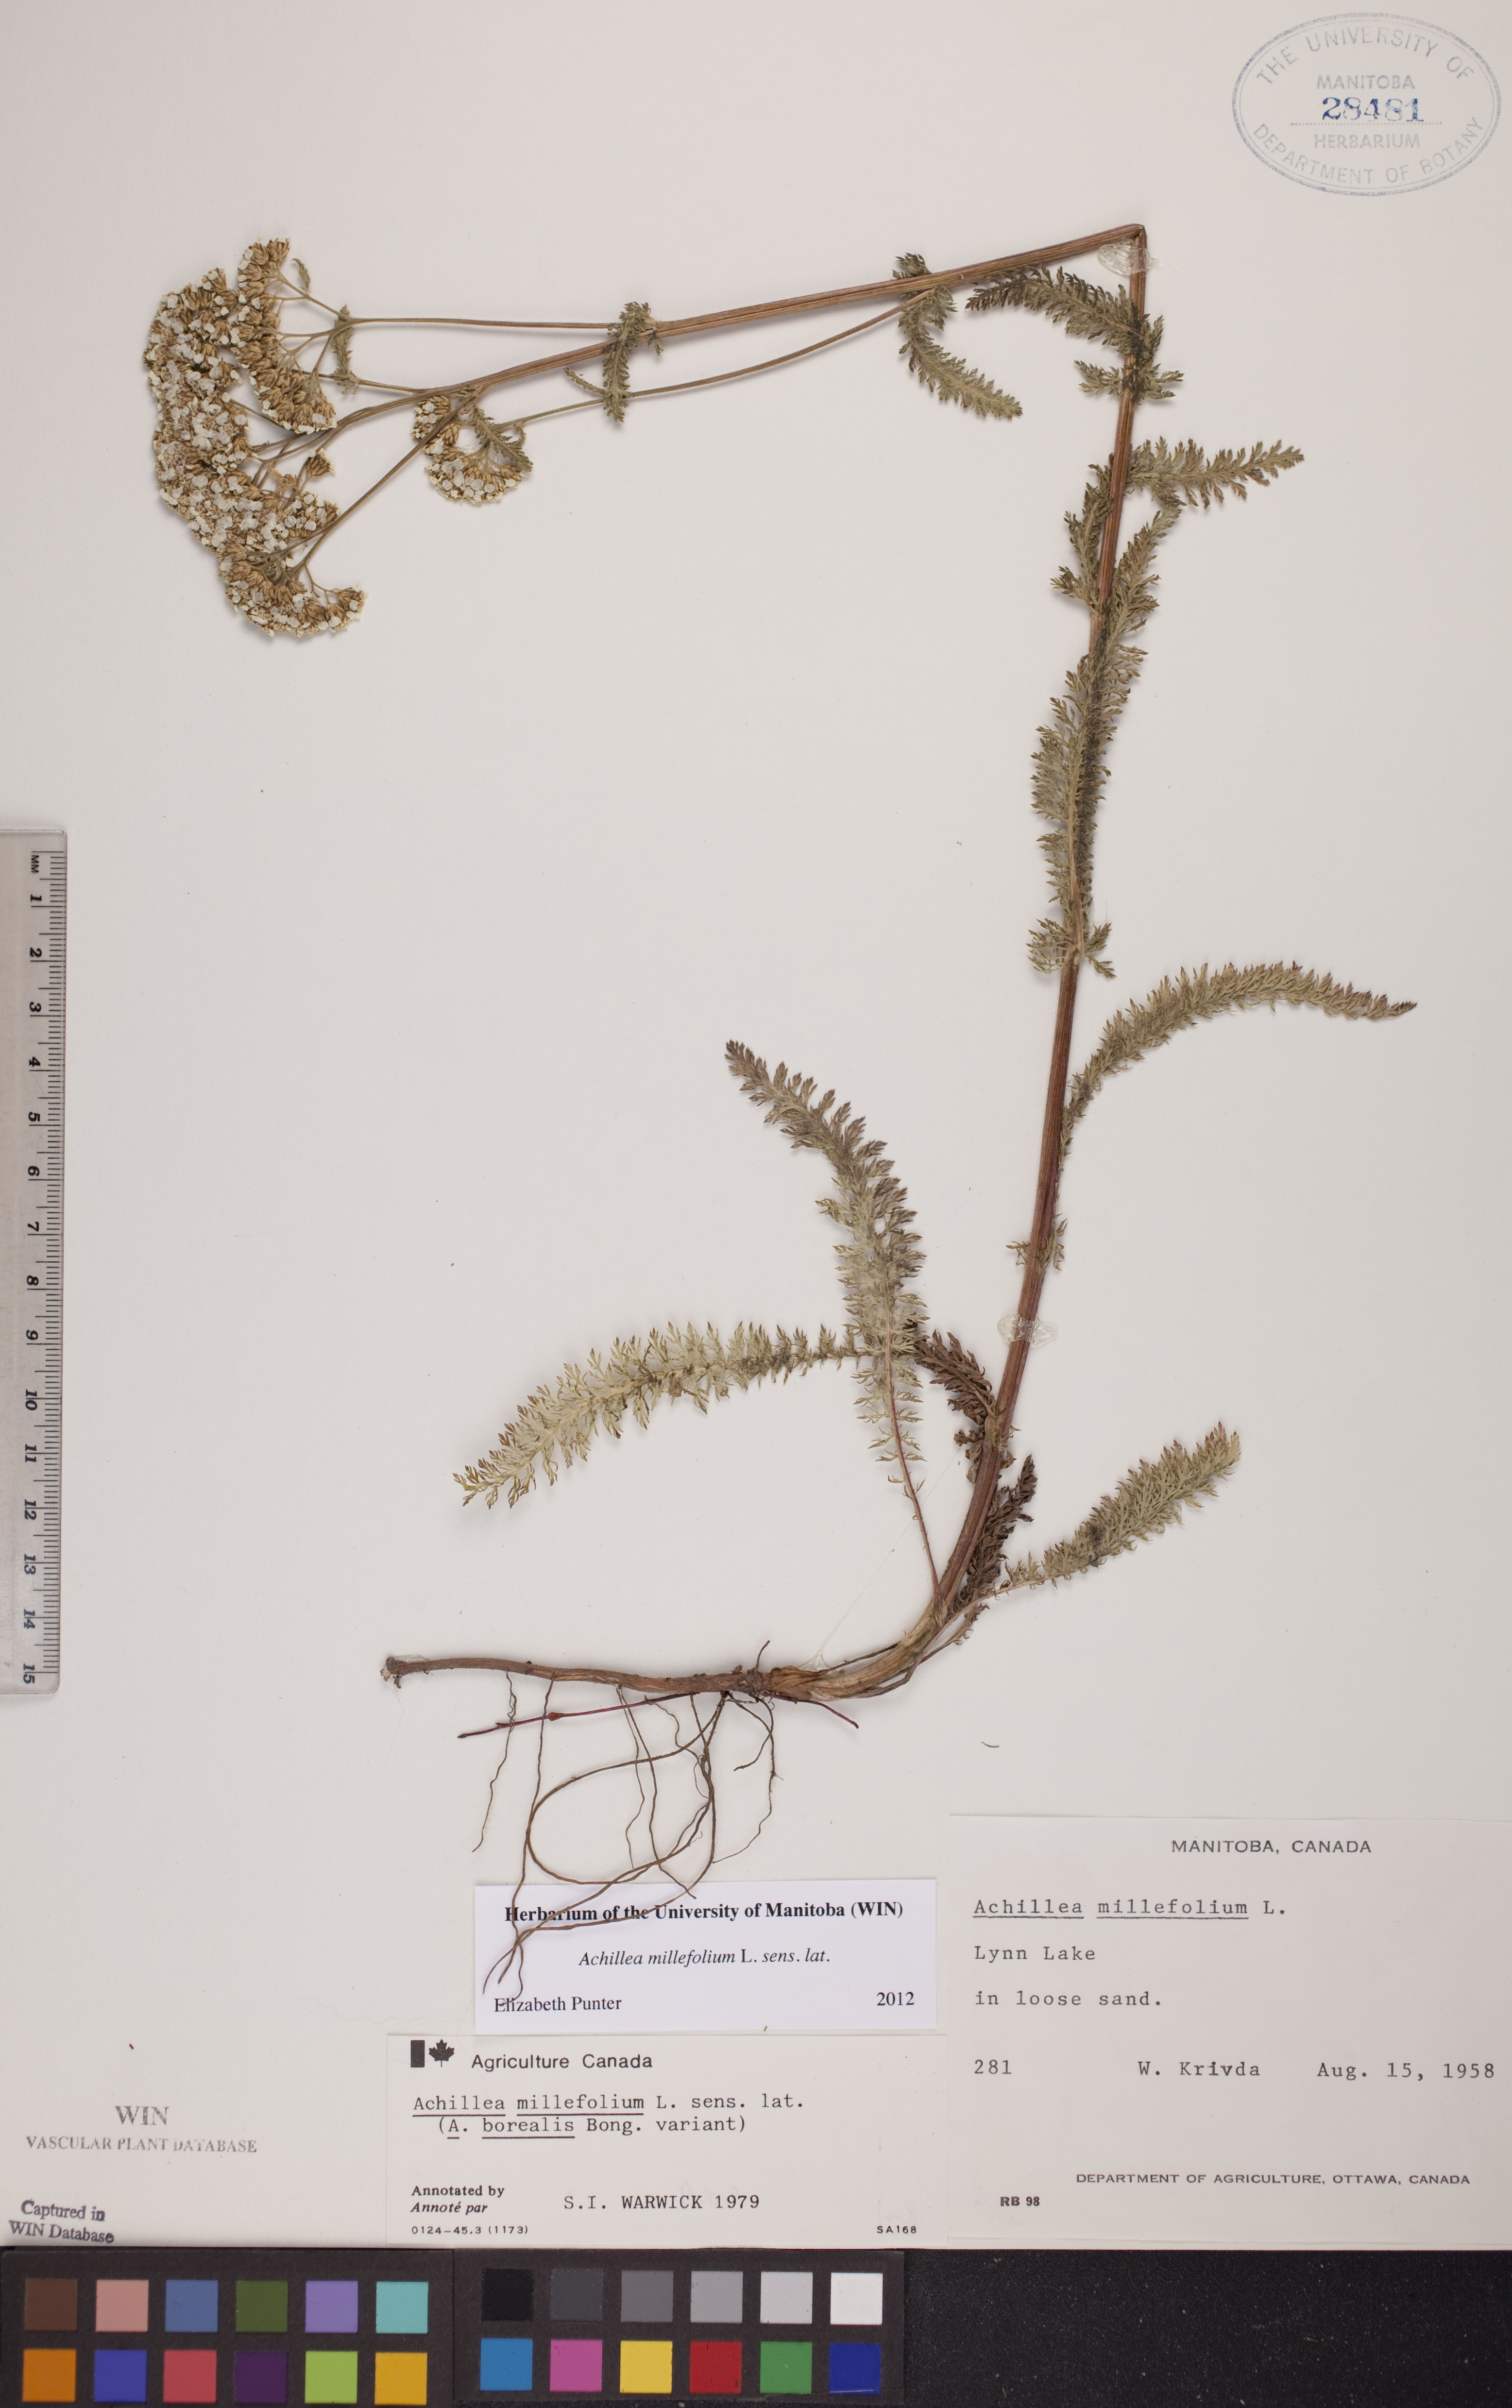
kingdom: Plantae
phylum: Tracheophyta
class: Magnoliopsida
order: Asterales
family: Asteraceae
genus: Achillea
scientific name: Achillea millefolium
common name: Yarrow
